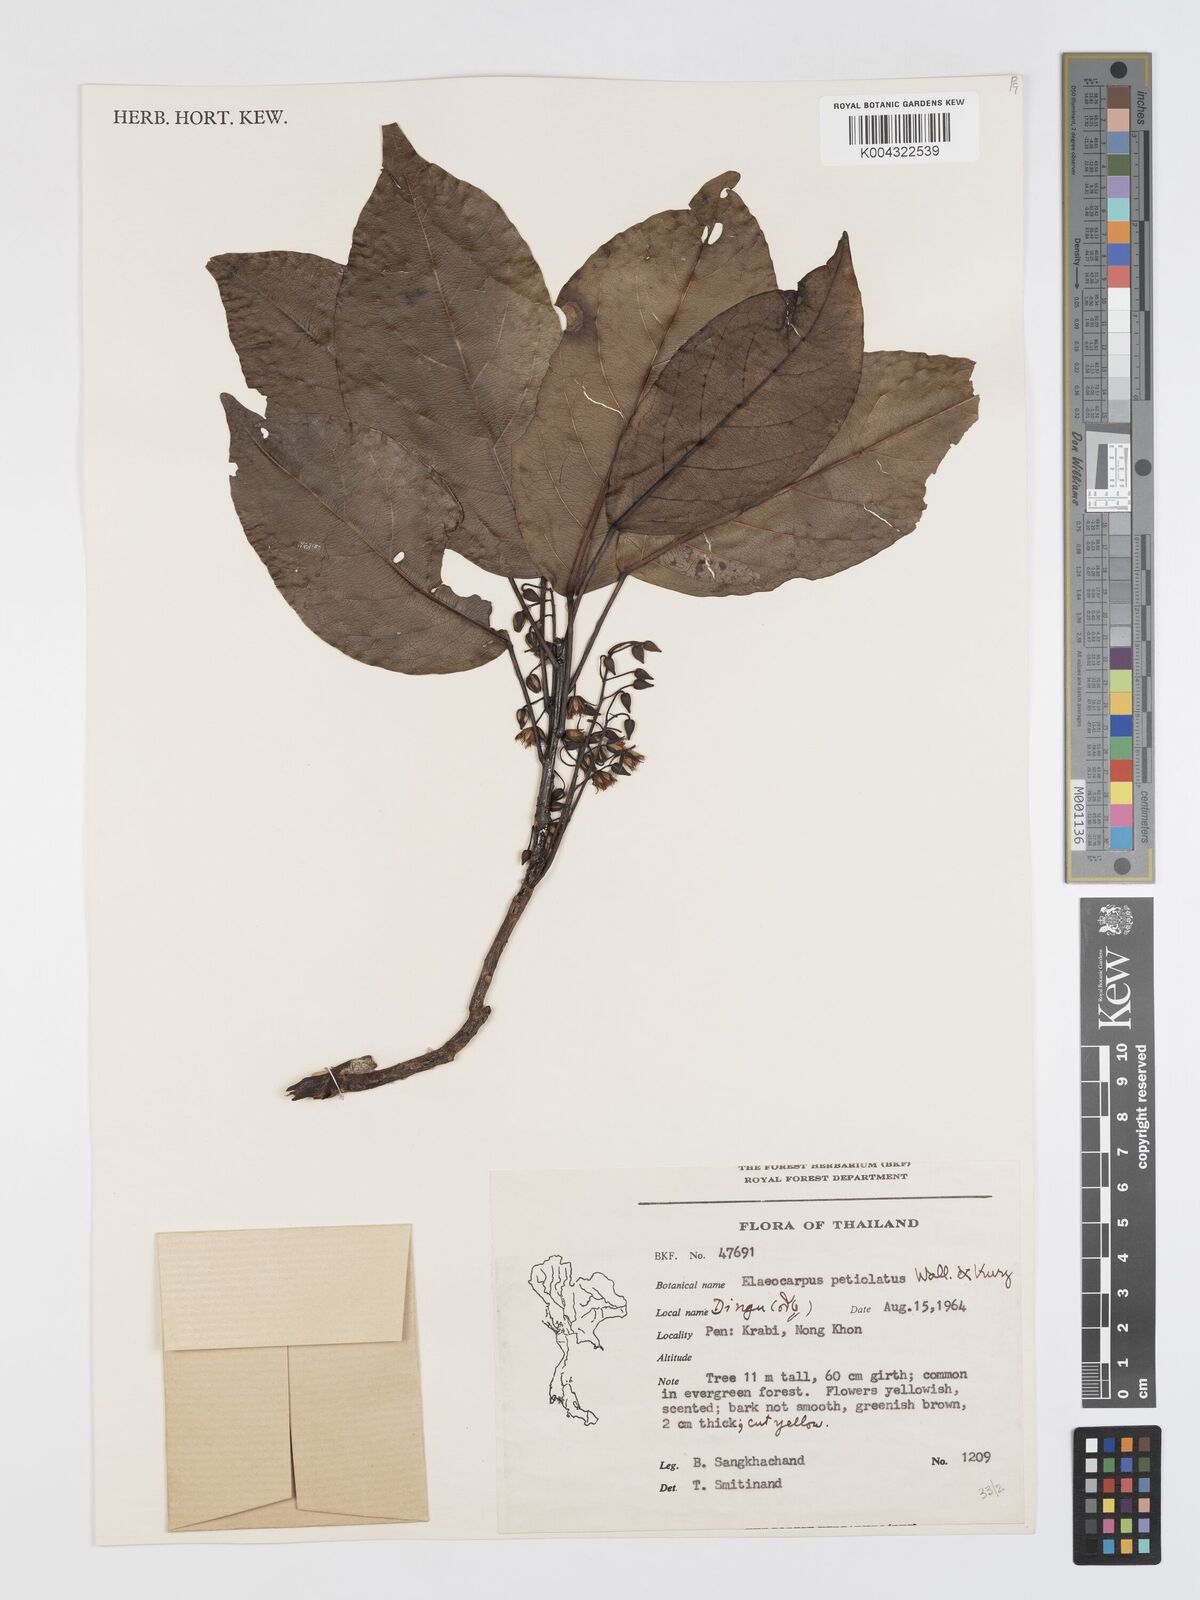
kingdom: Plantae
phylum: Tracheophyta
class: Magnoliopsida
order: Oxalidales
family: Elaeocarpaceae
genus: Elaeocarpus
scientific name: Elaeocarpus petiolatus
